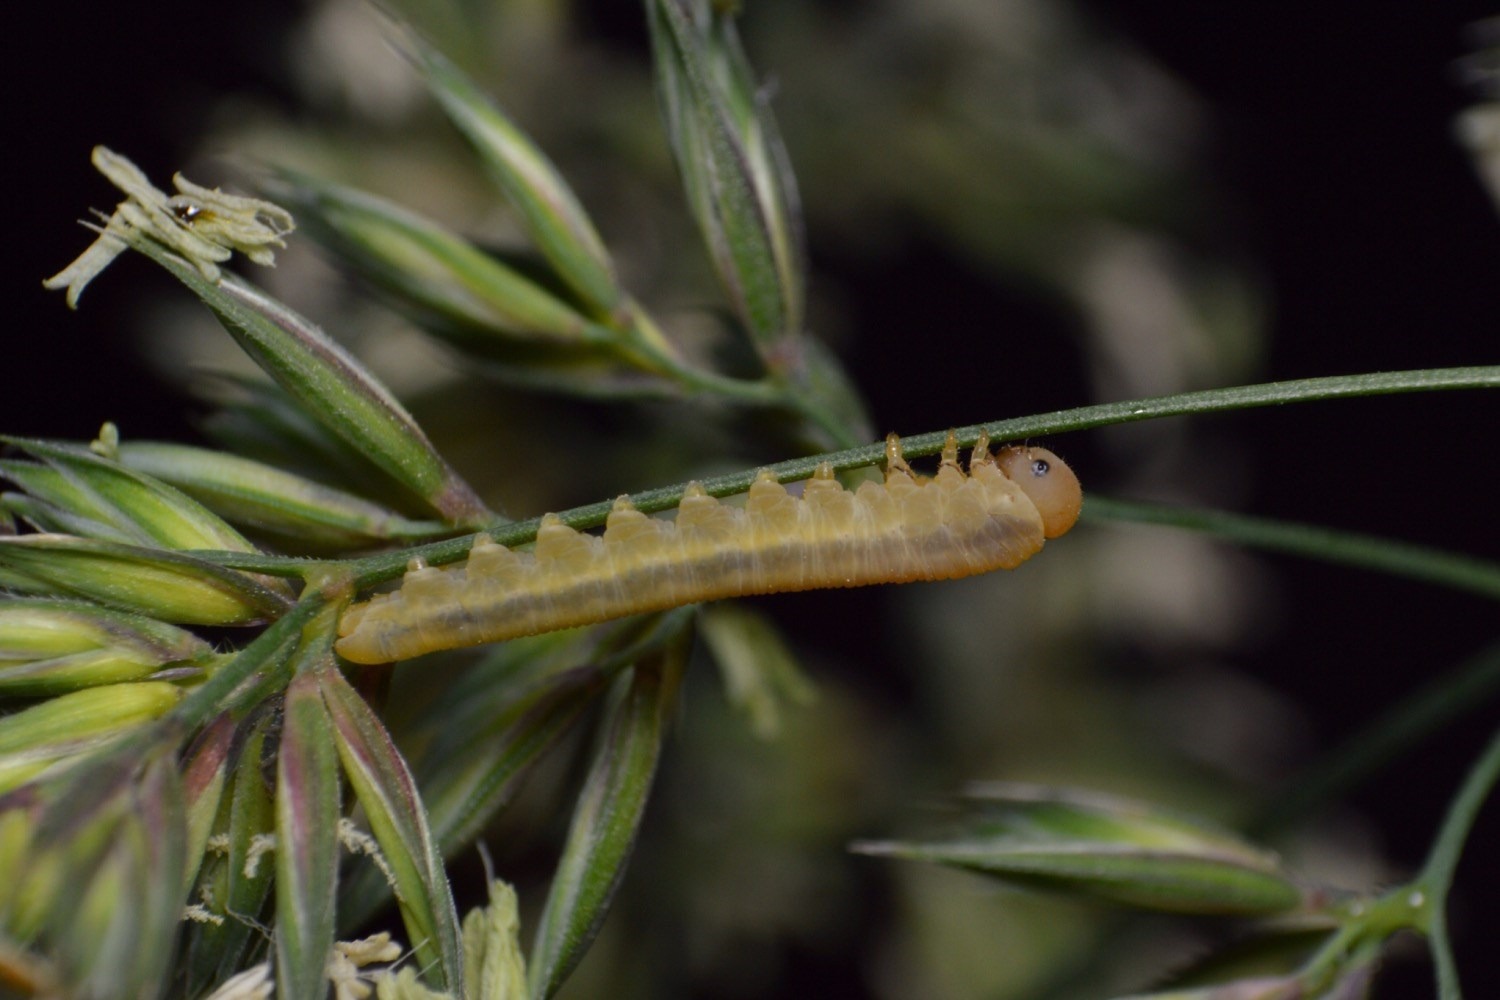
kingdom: Animalia
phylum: Arthropoda
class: Insecta
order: Hymenoptera
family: Tenthredinidae
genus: Dolerus
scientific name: Dolerus nitens
